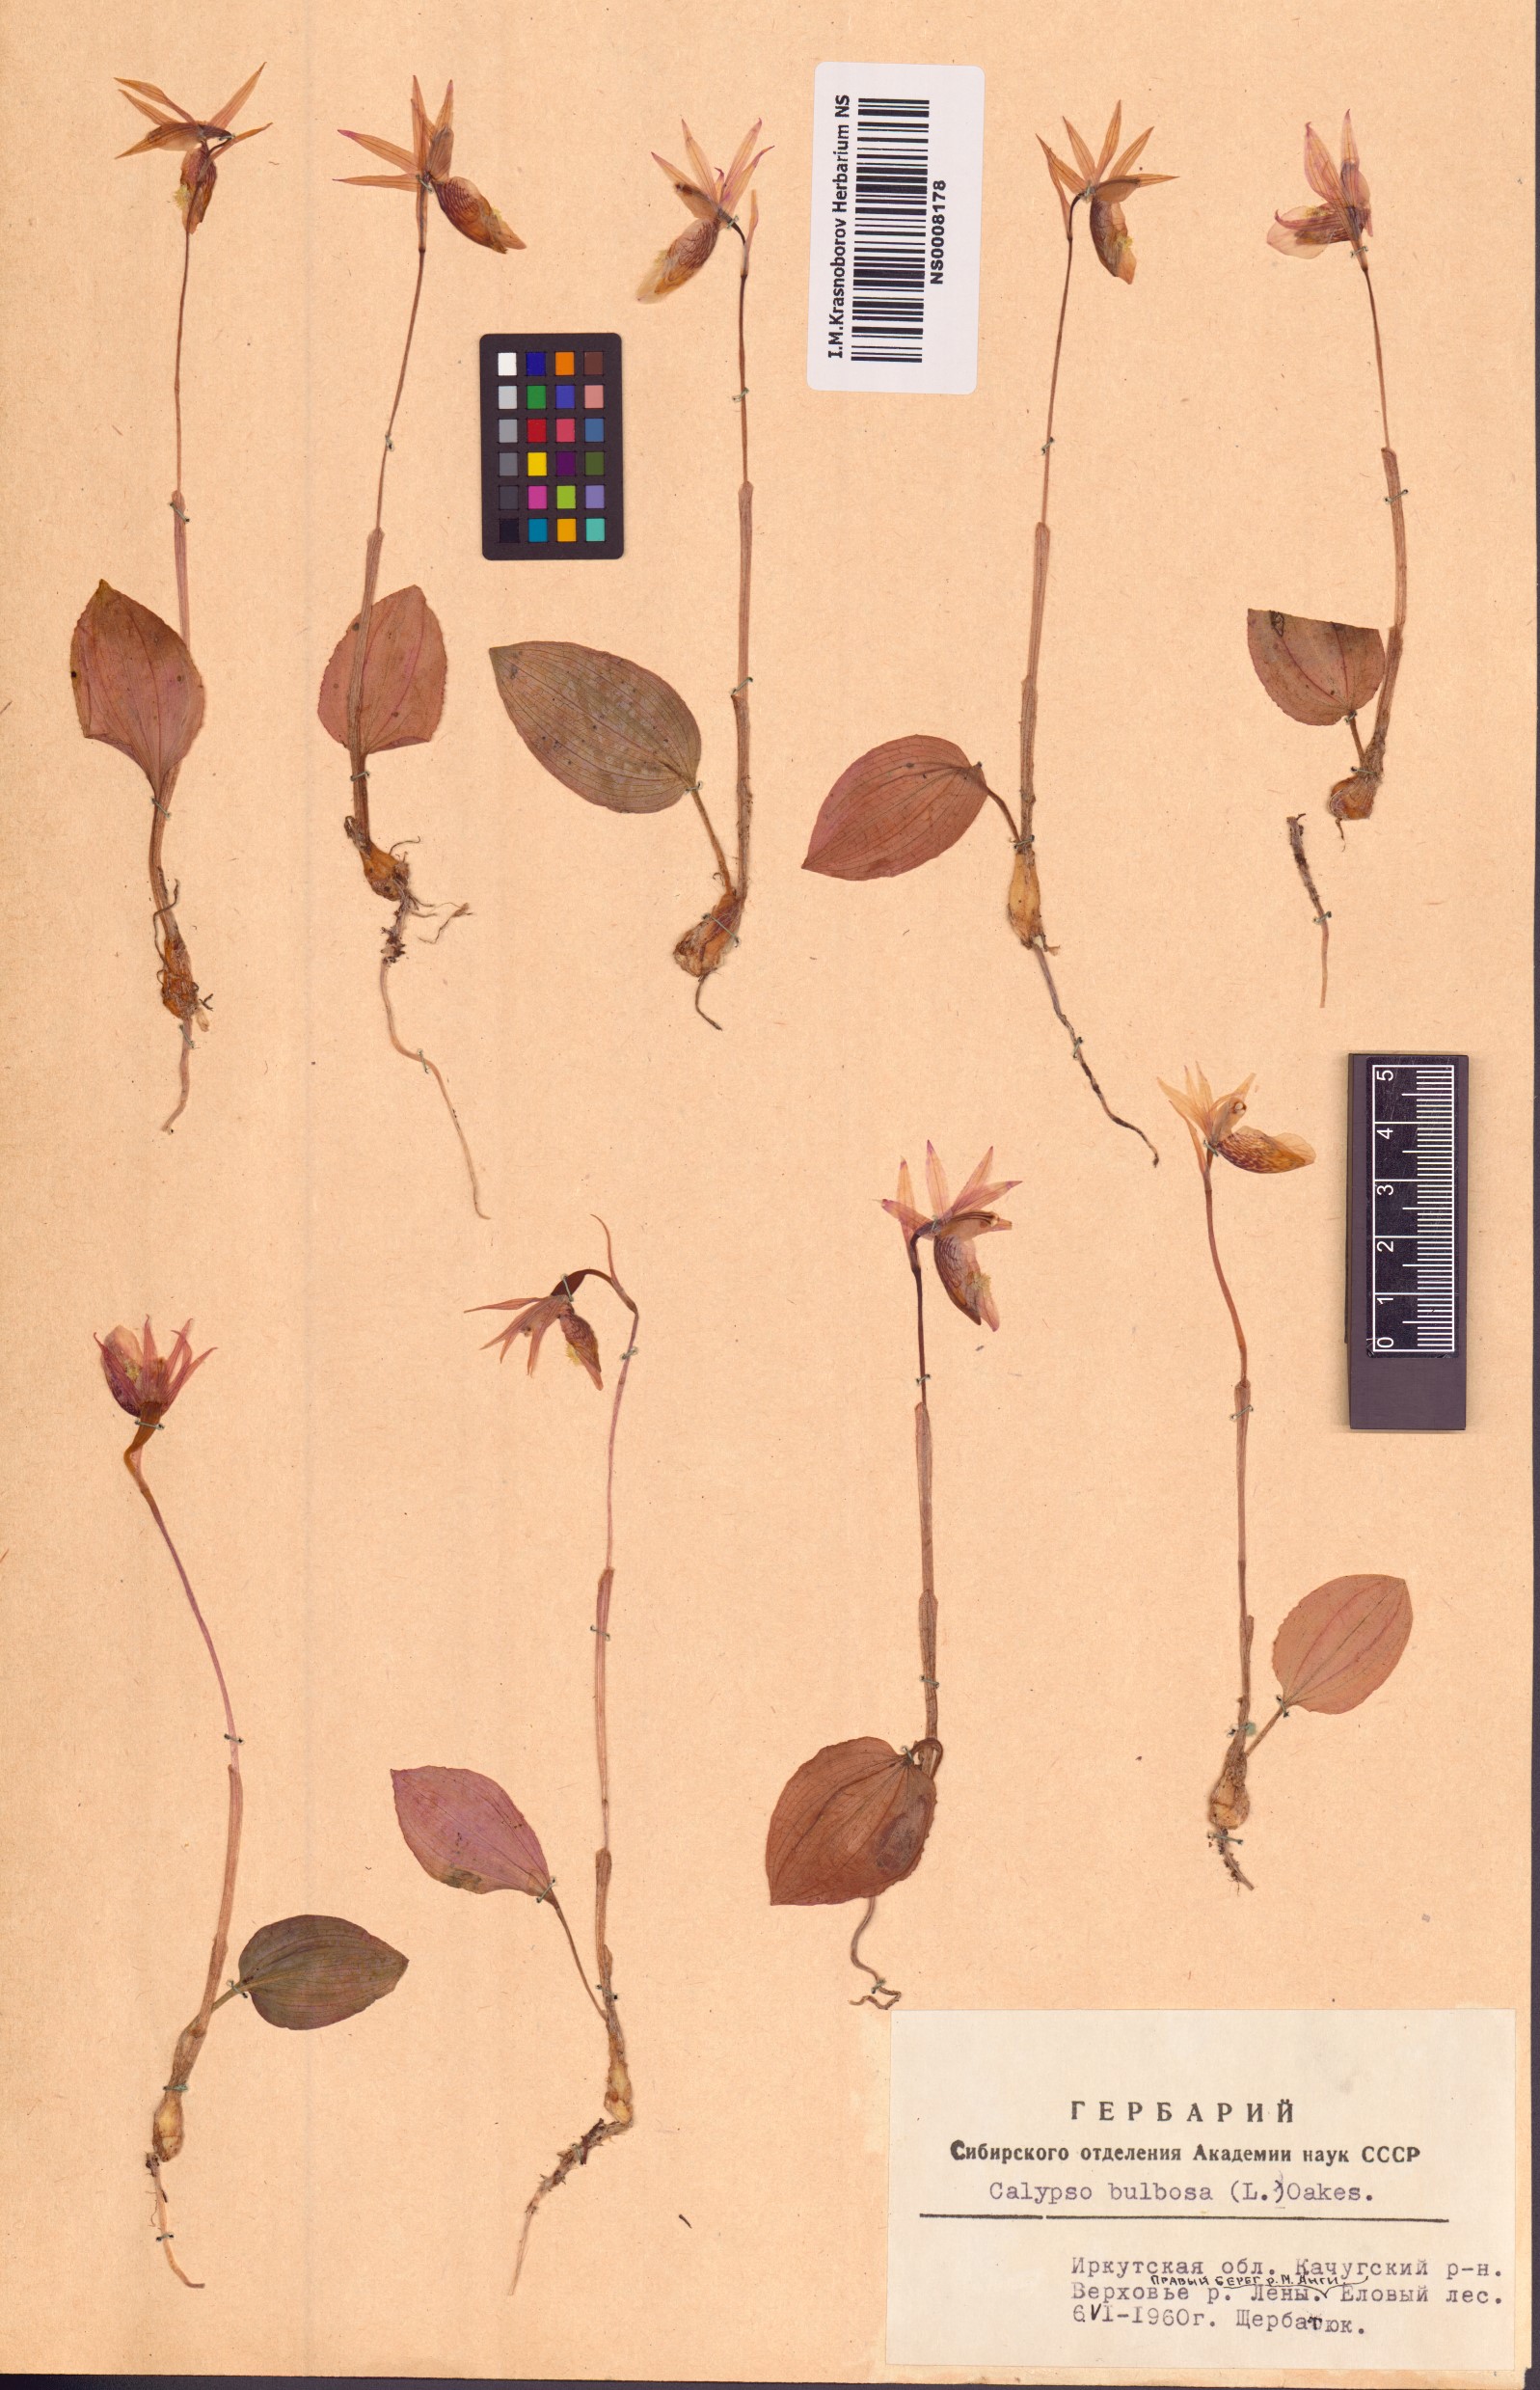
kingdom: Plantae
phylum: Tracheophyta
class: Liliopsida
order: Asparagales
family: Orchidaceae
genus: Calypso
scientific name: Calypso bulbosa
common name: Calypso
